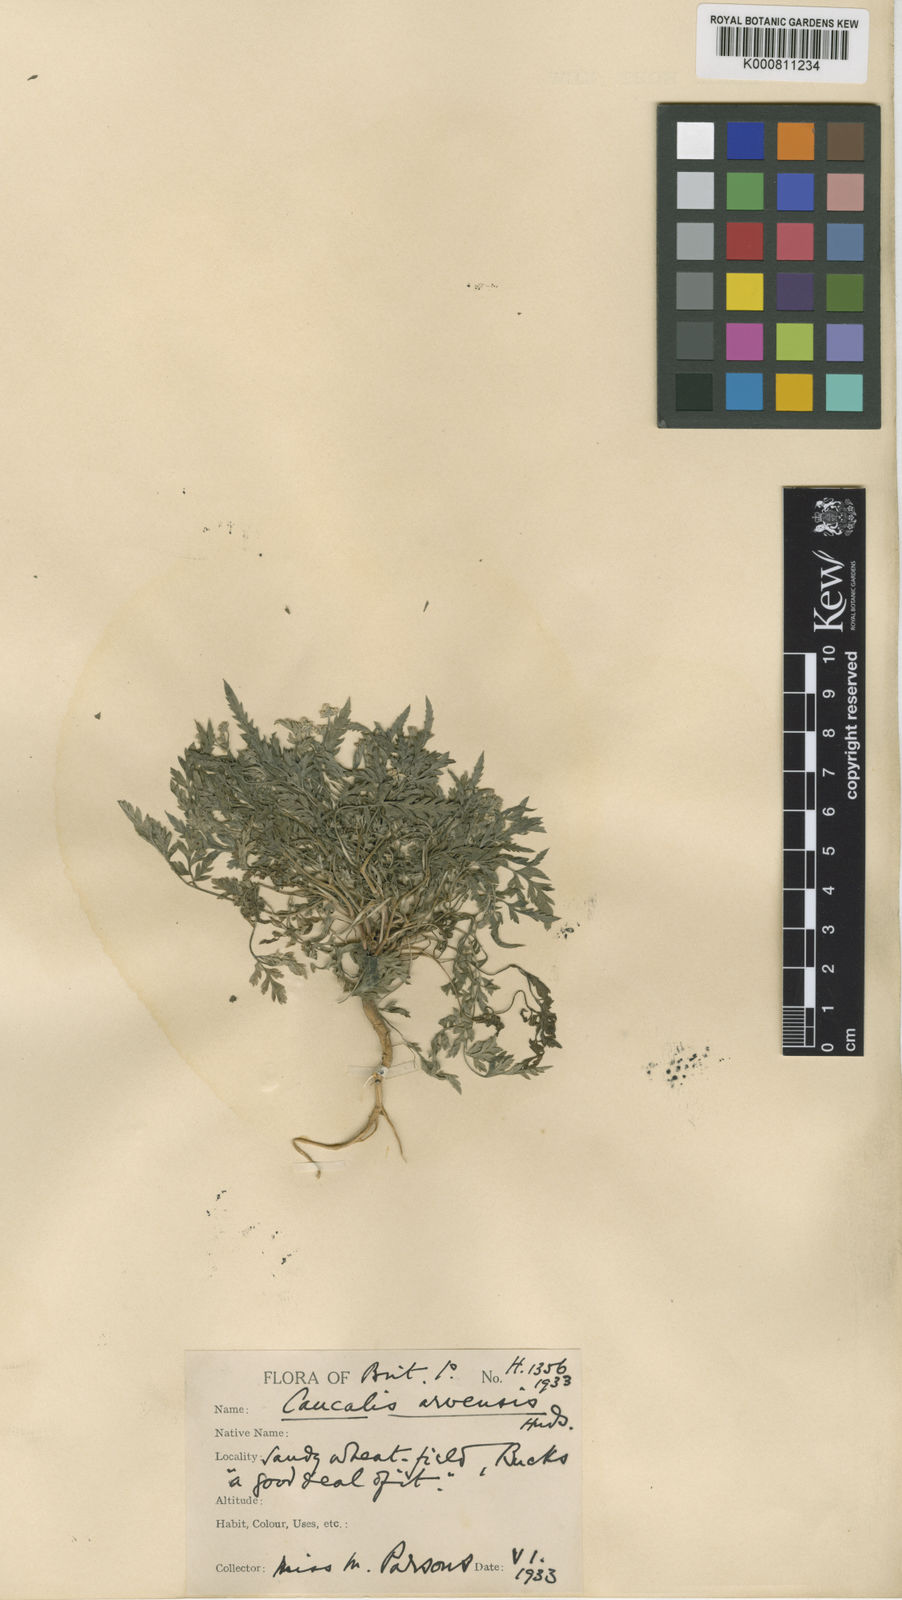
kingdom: Plantae
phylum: Tracheophyta
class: Magnoliopsida
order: Apiales
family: Apiaceae
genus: Torilis
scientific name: Torilis arvensis
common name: Spreading hedge-parsley
